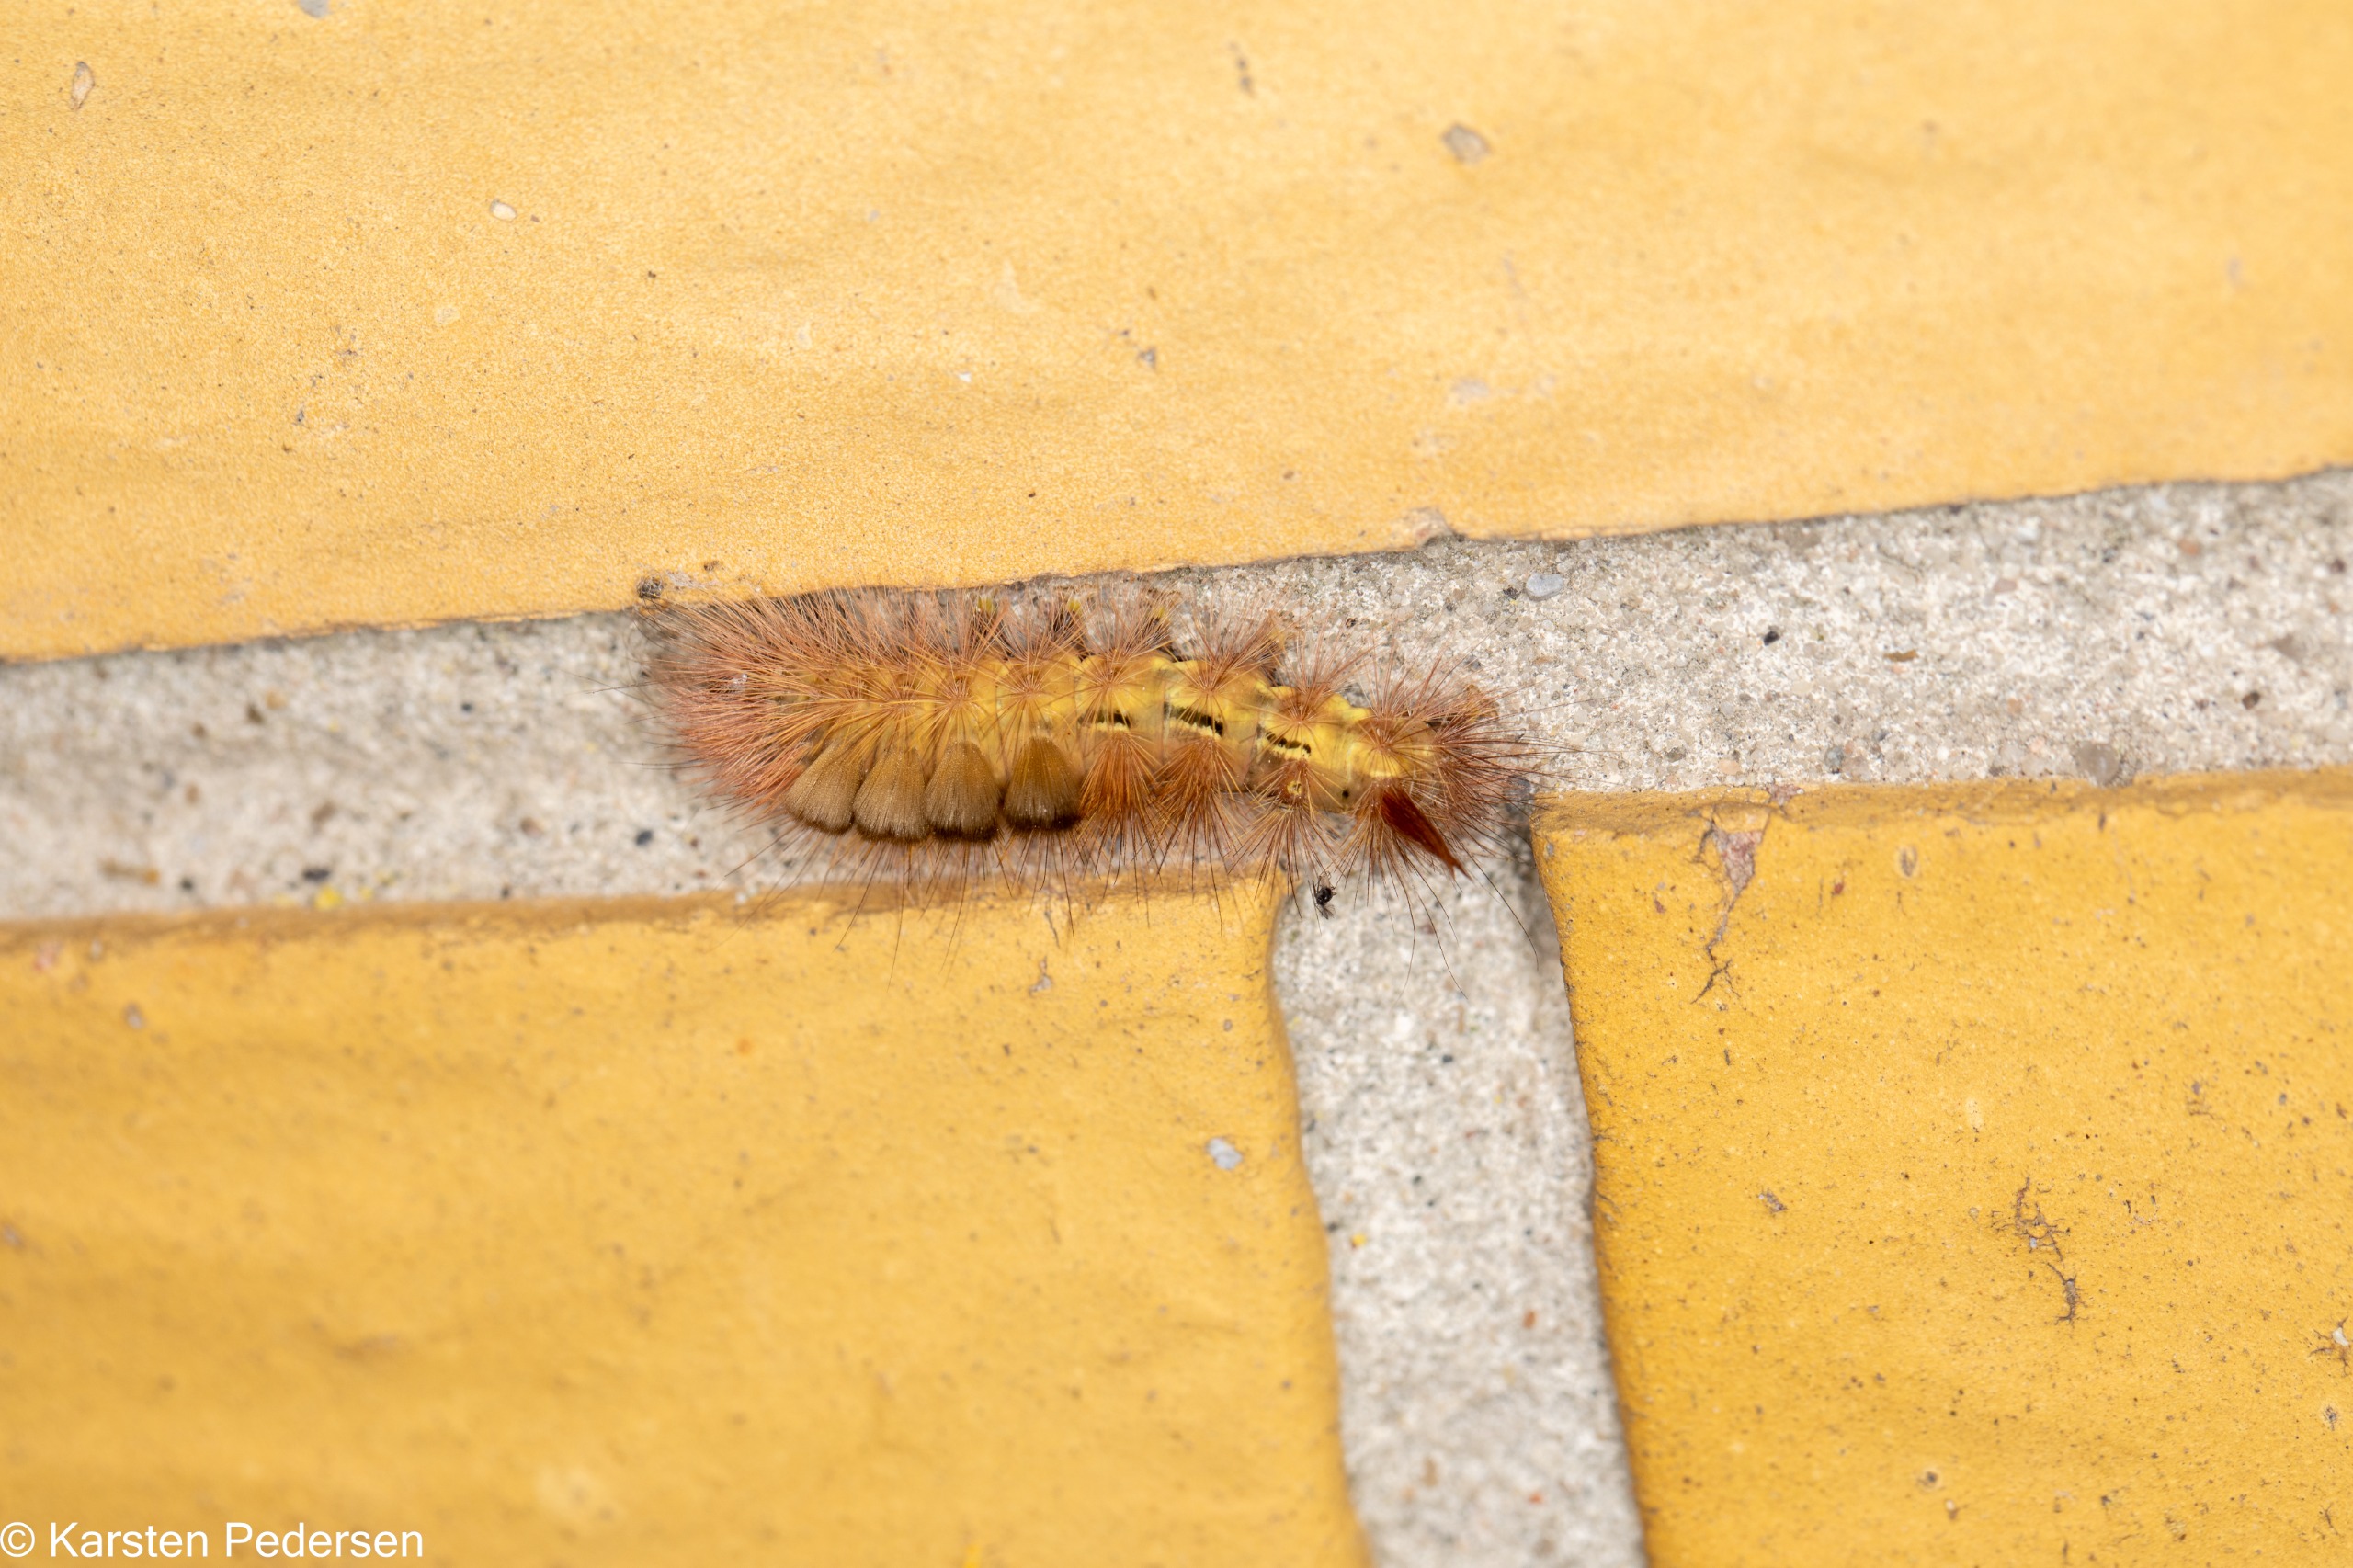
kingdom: Animalia
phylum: Arthropoda
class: Insecta
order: Lepidoptera
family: Erebidae
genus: Calliteara
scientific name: Calliteara pudibunda
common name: Bøgenonne
